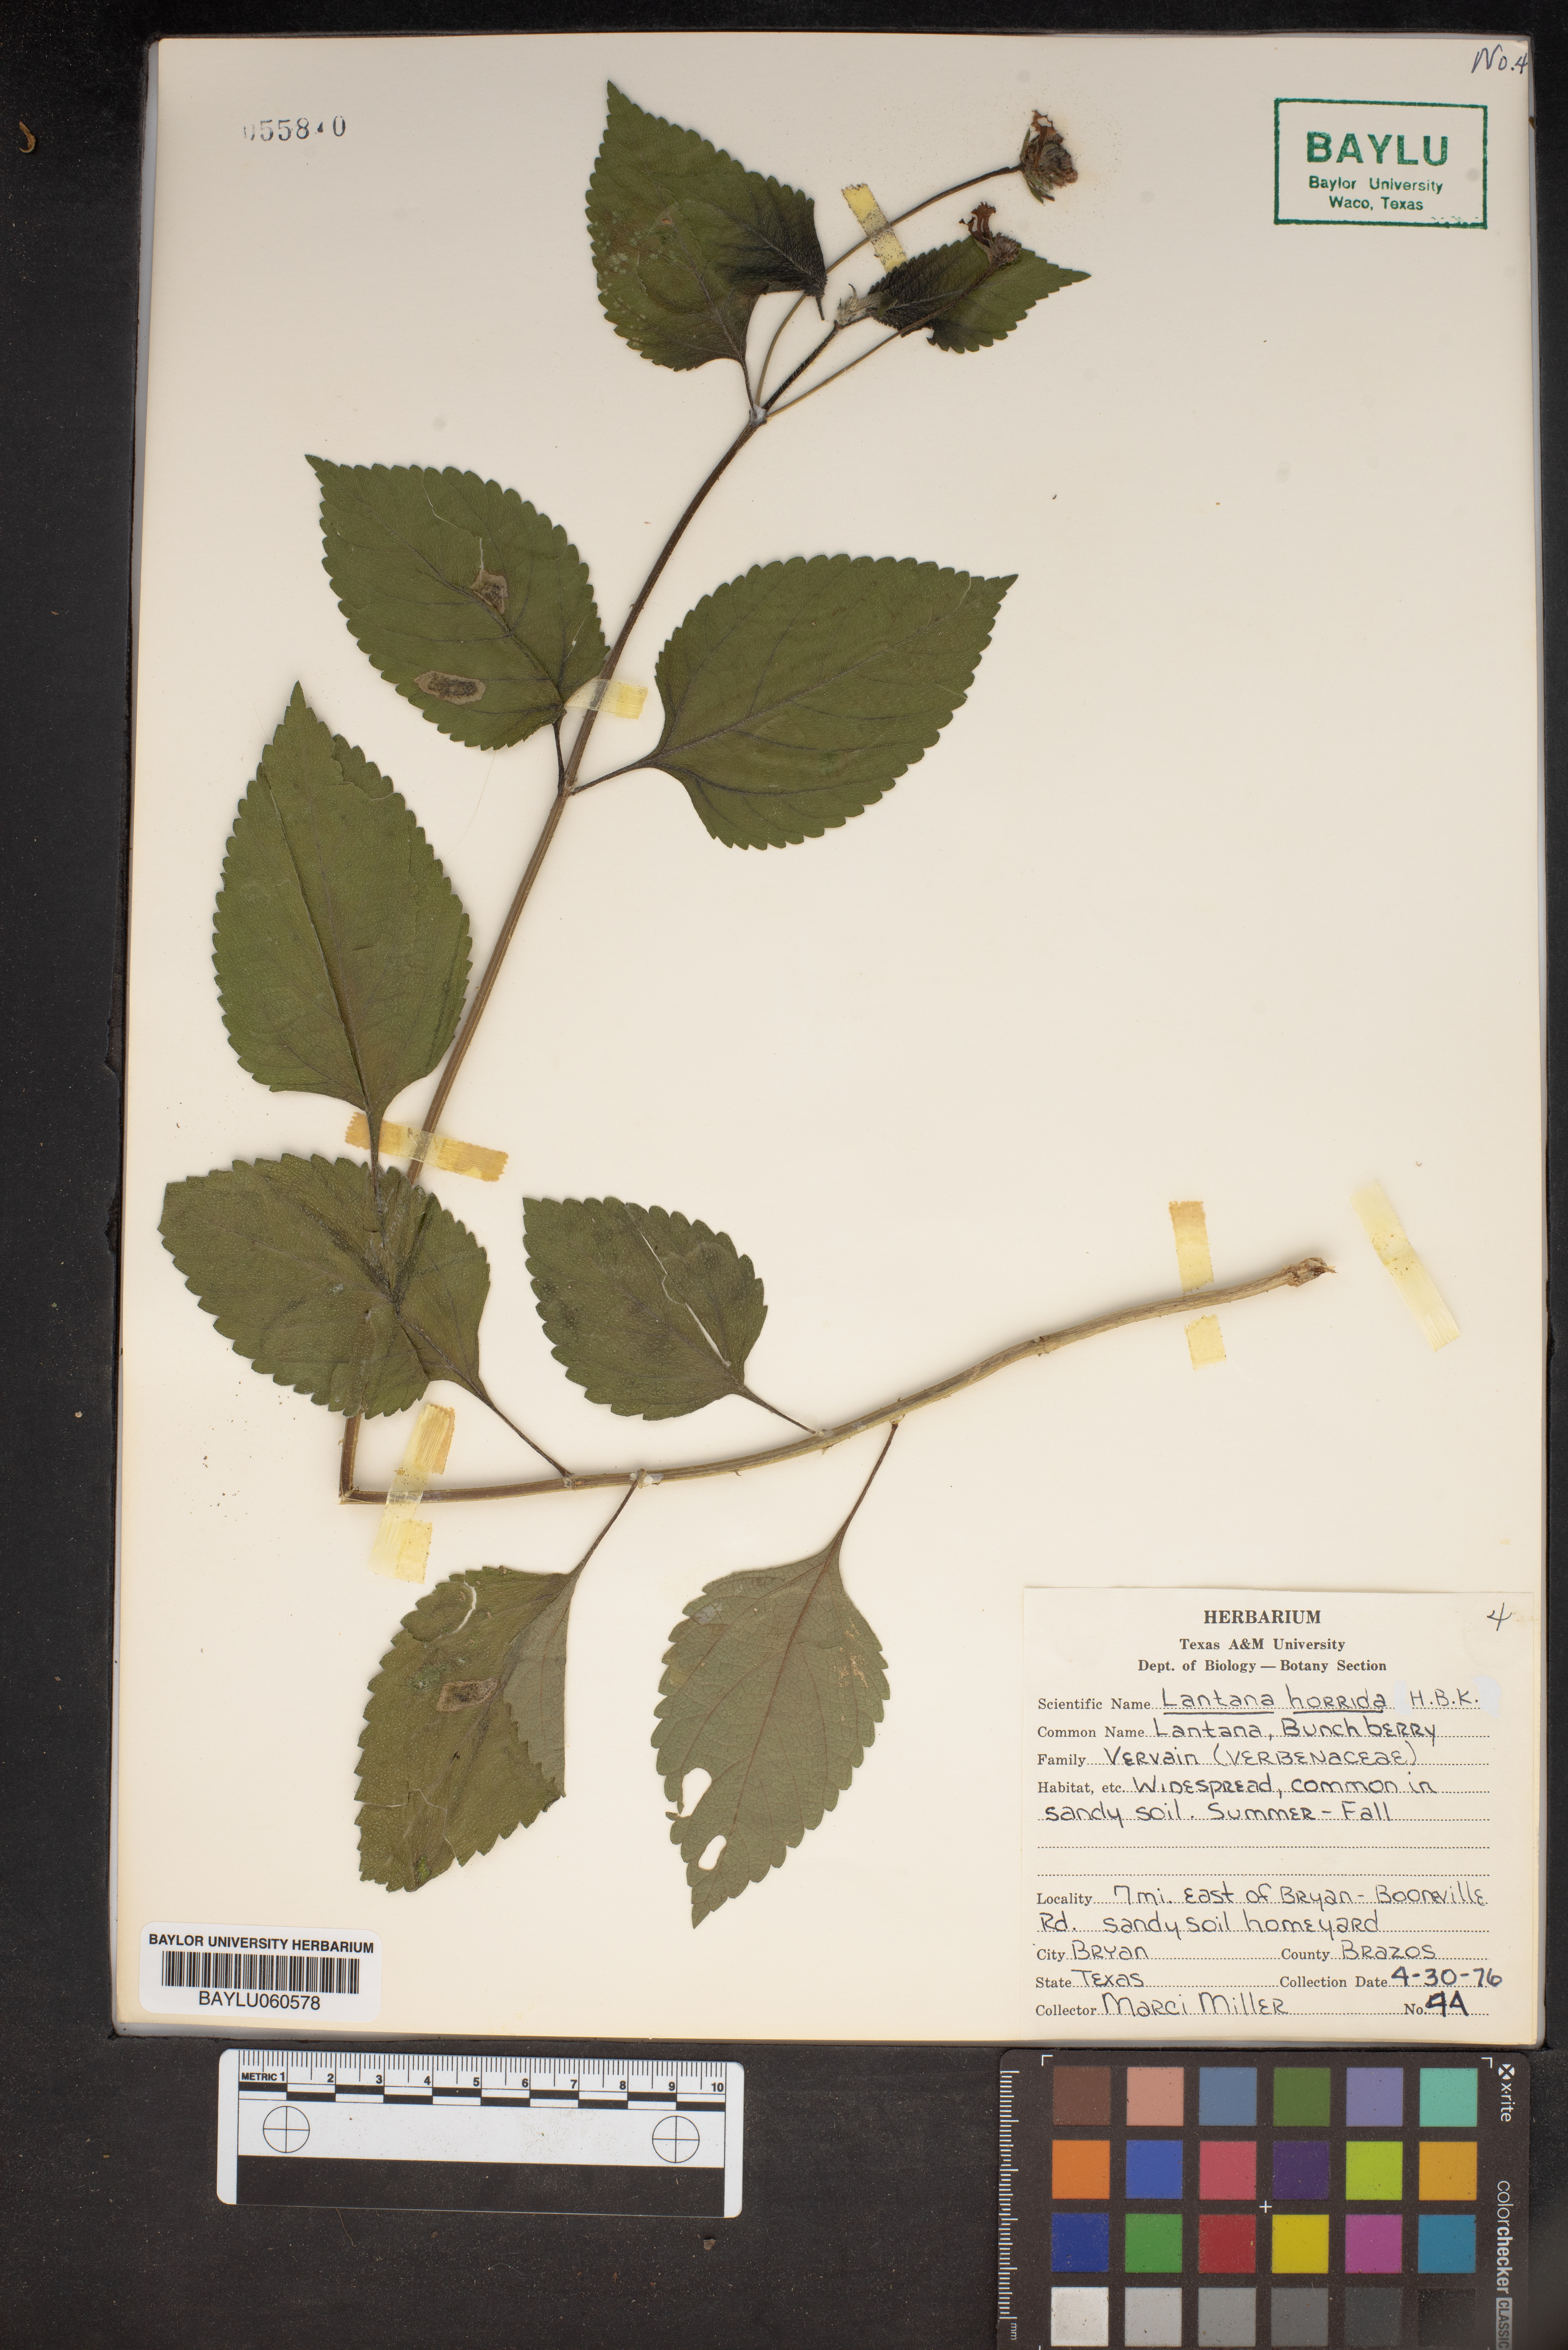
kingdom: Plantae
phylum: Tracheophyta
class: Magnoliopsida
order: Lamiales
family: Verbenaceae
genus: Lantana
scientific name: Lantana horrida
